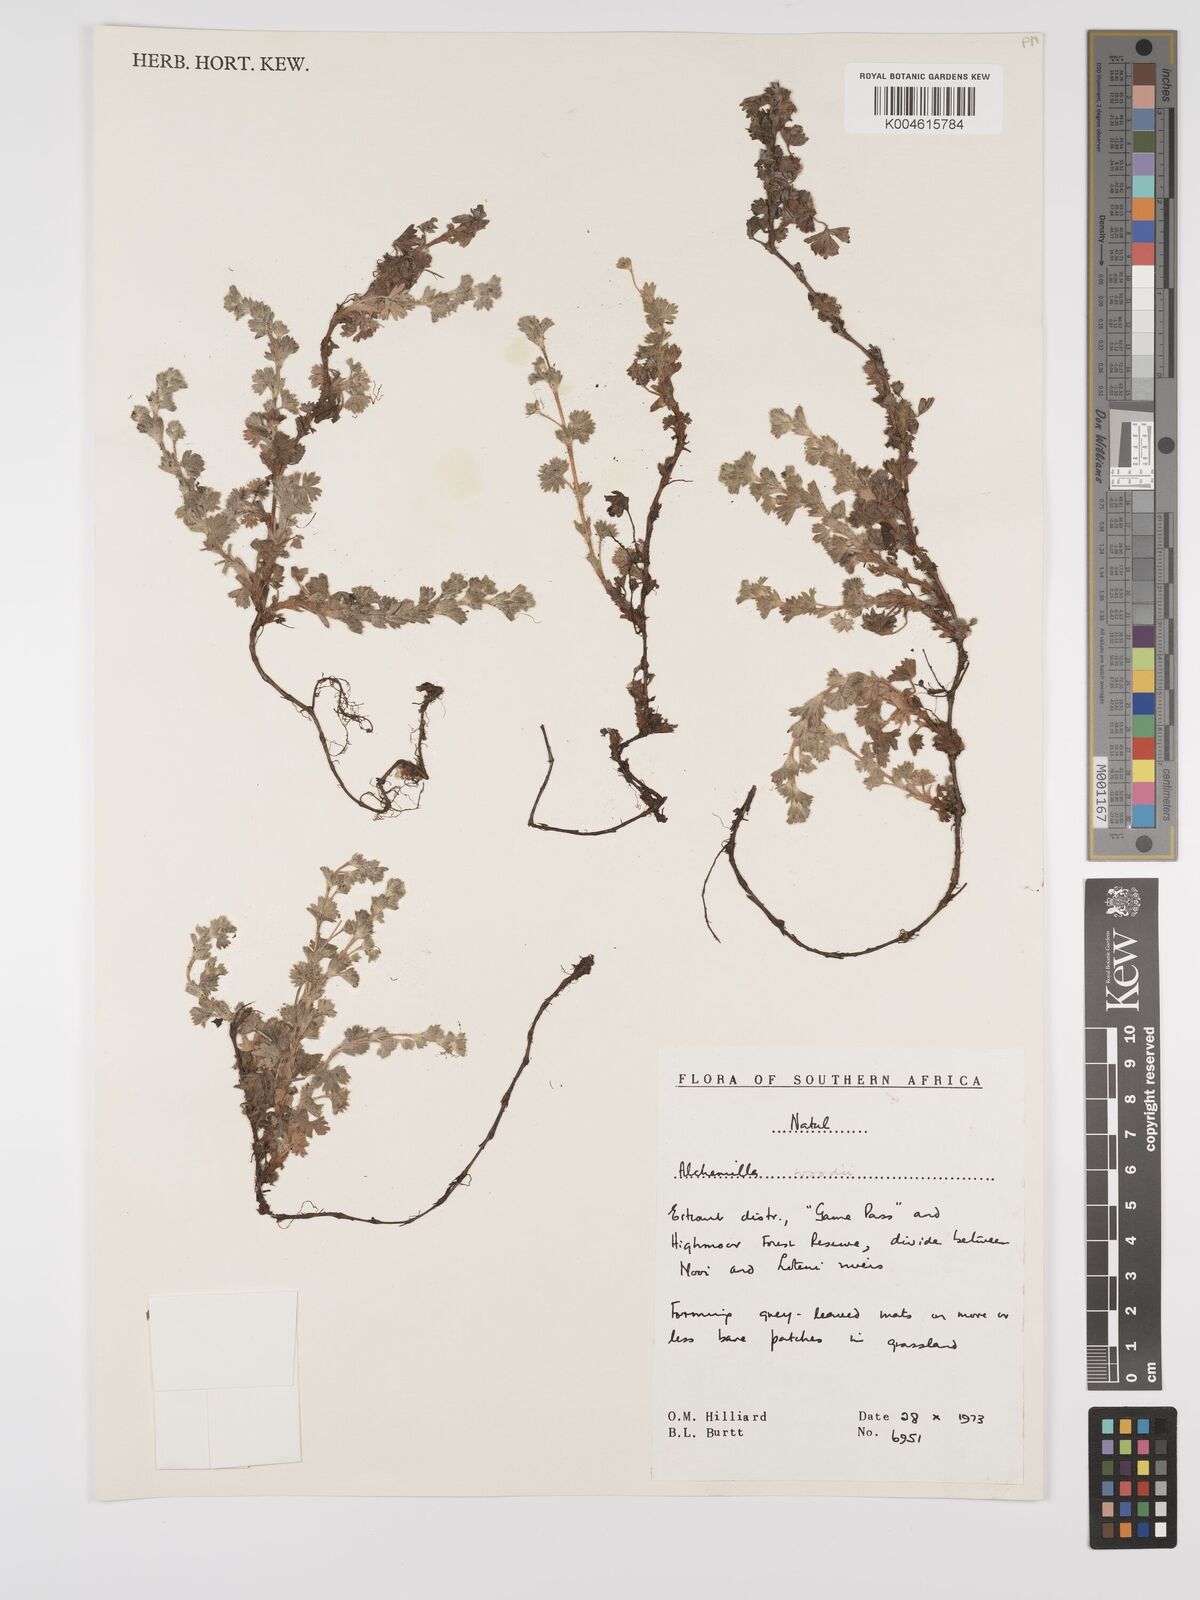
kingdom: Plantae
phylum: Tracheophyta
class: Magnoliopsida
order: Rosales
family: Rosaceae
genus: Alchemilla
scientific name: Alchemilla woodii
